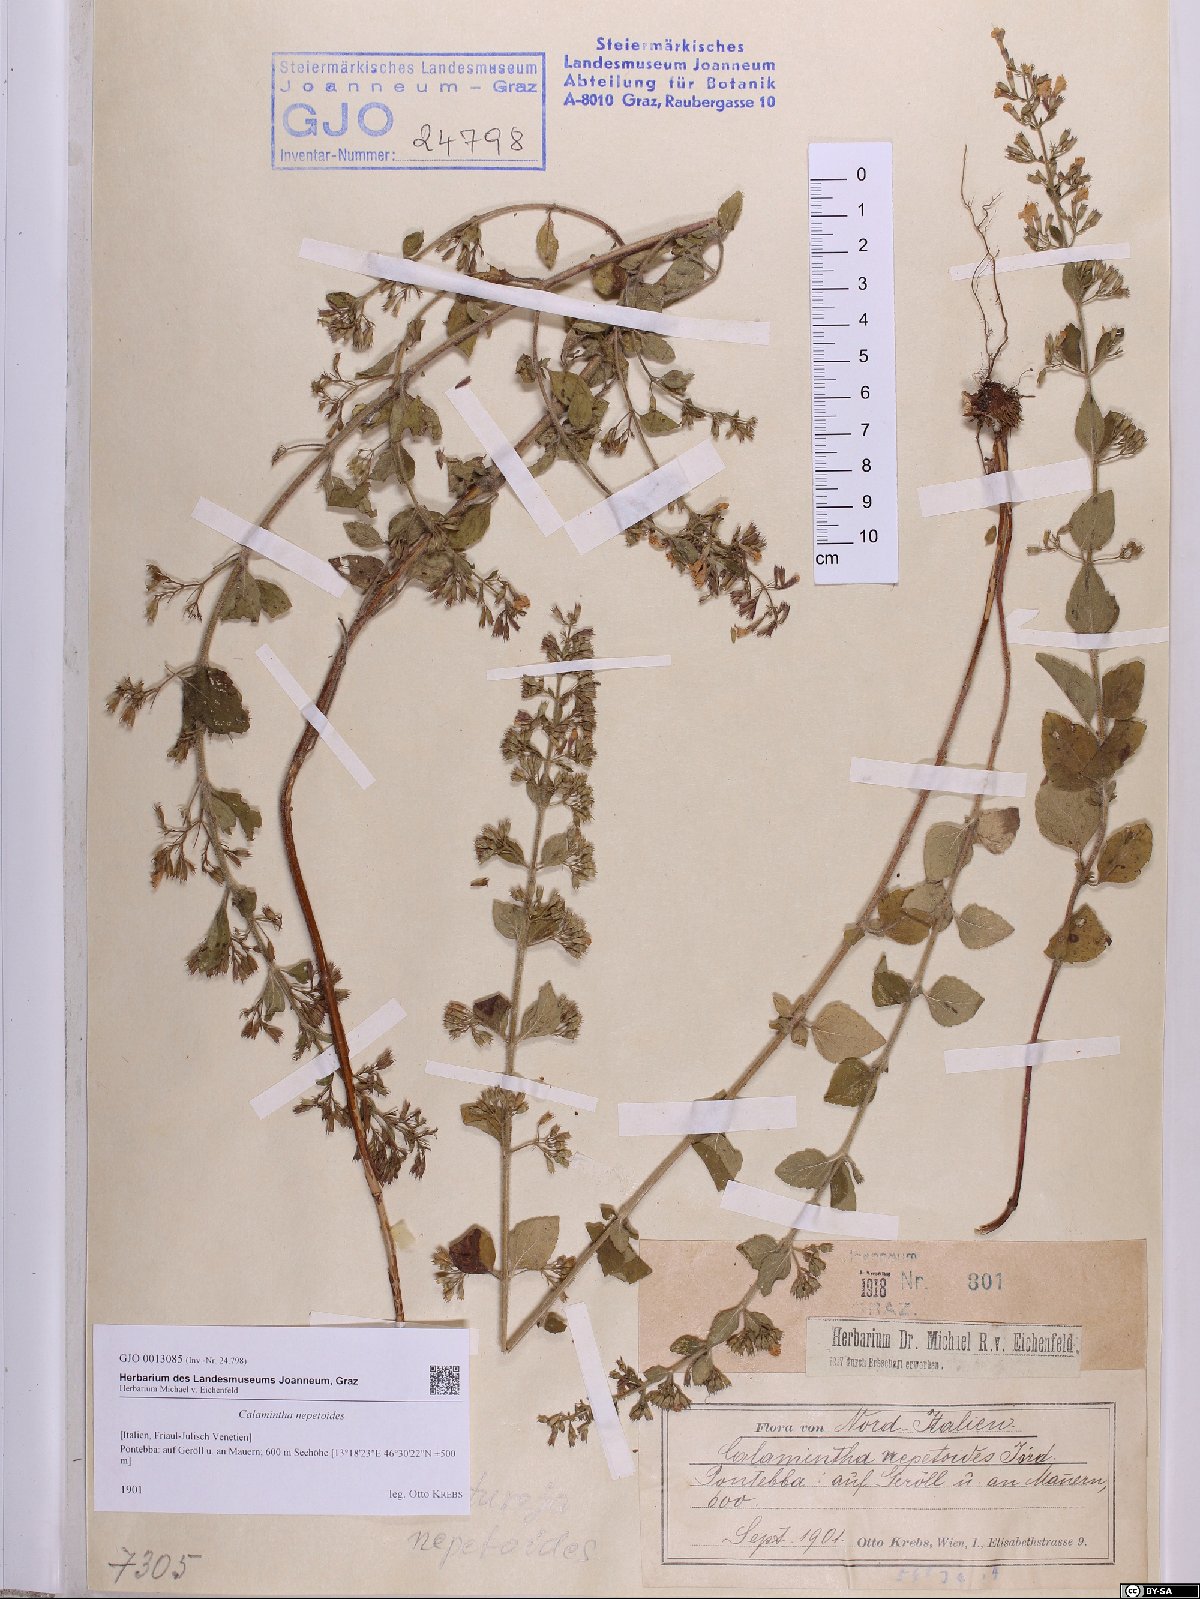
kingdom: Fungi
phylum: Basidiomycota
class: Agaricomycetes
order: Gloeophyllales
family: Gloeophyllaceae
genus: Gloeophyllum
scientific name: Gloeophyllum odoratum
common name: Anise mazegill
